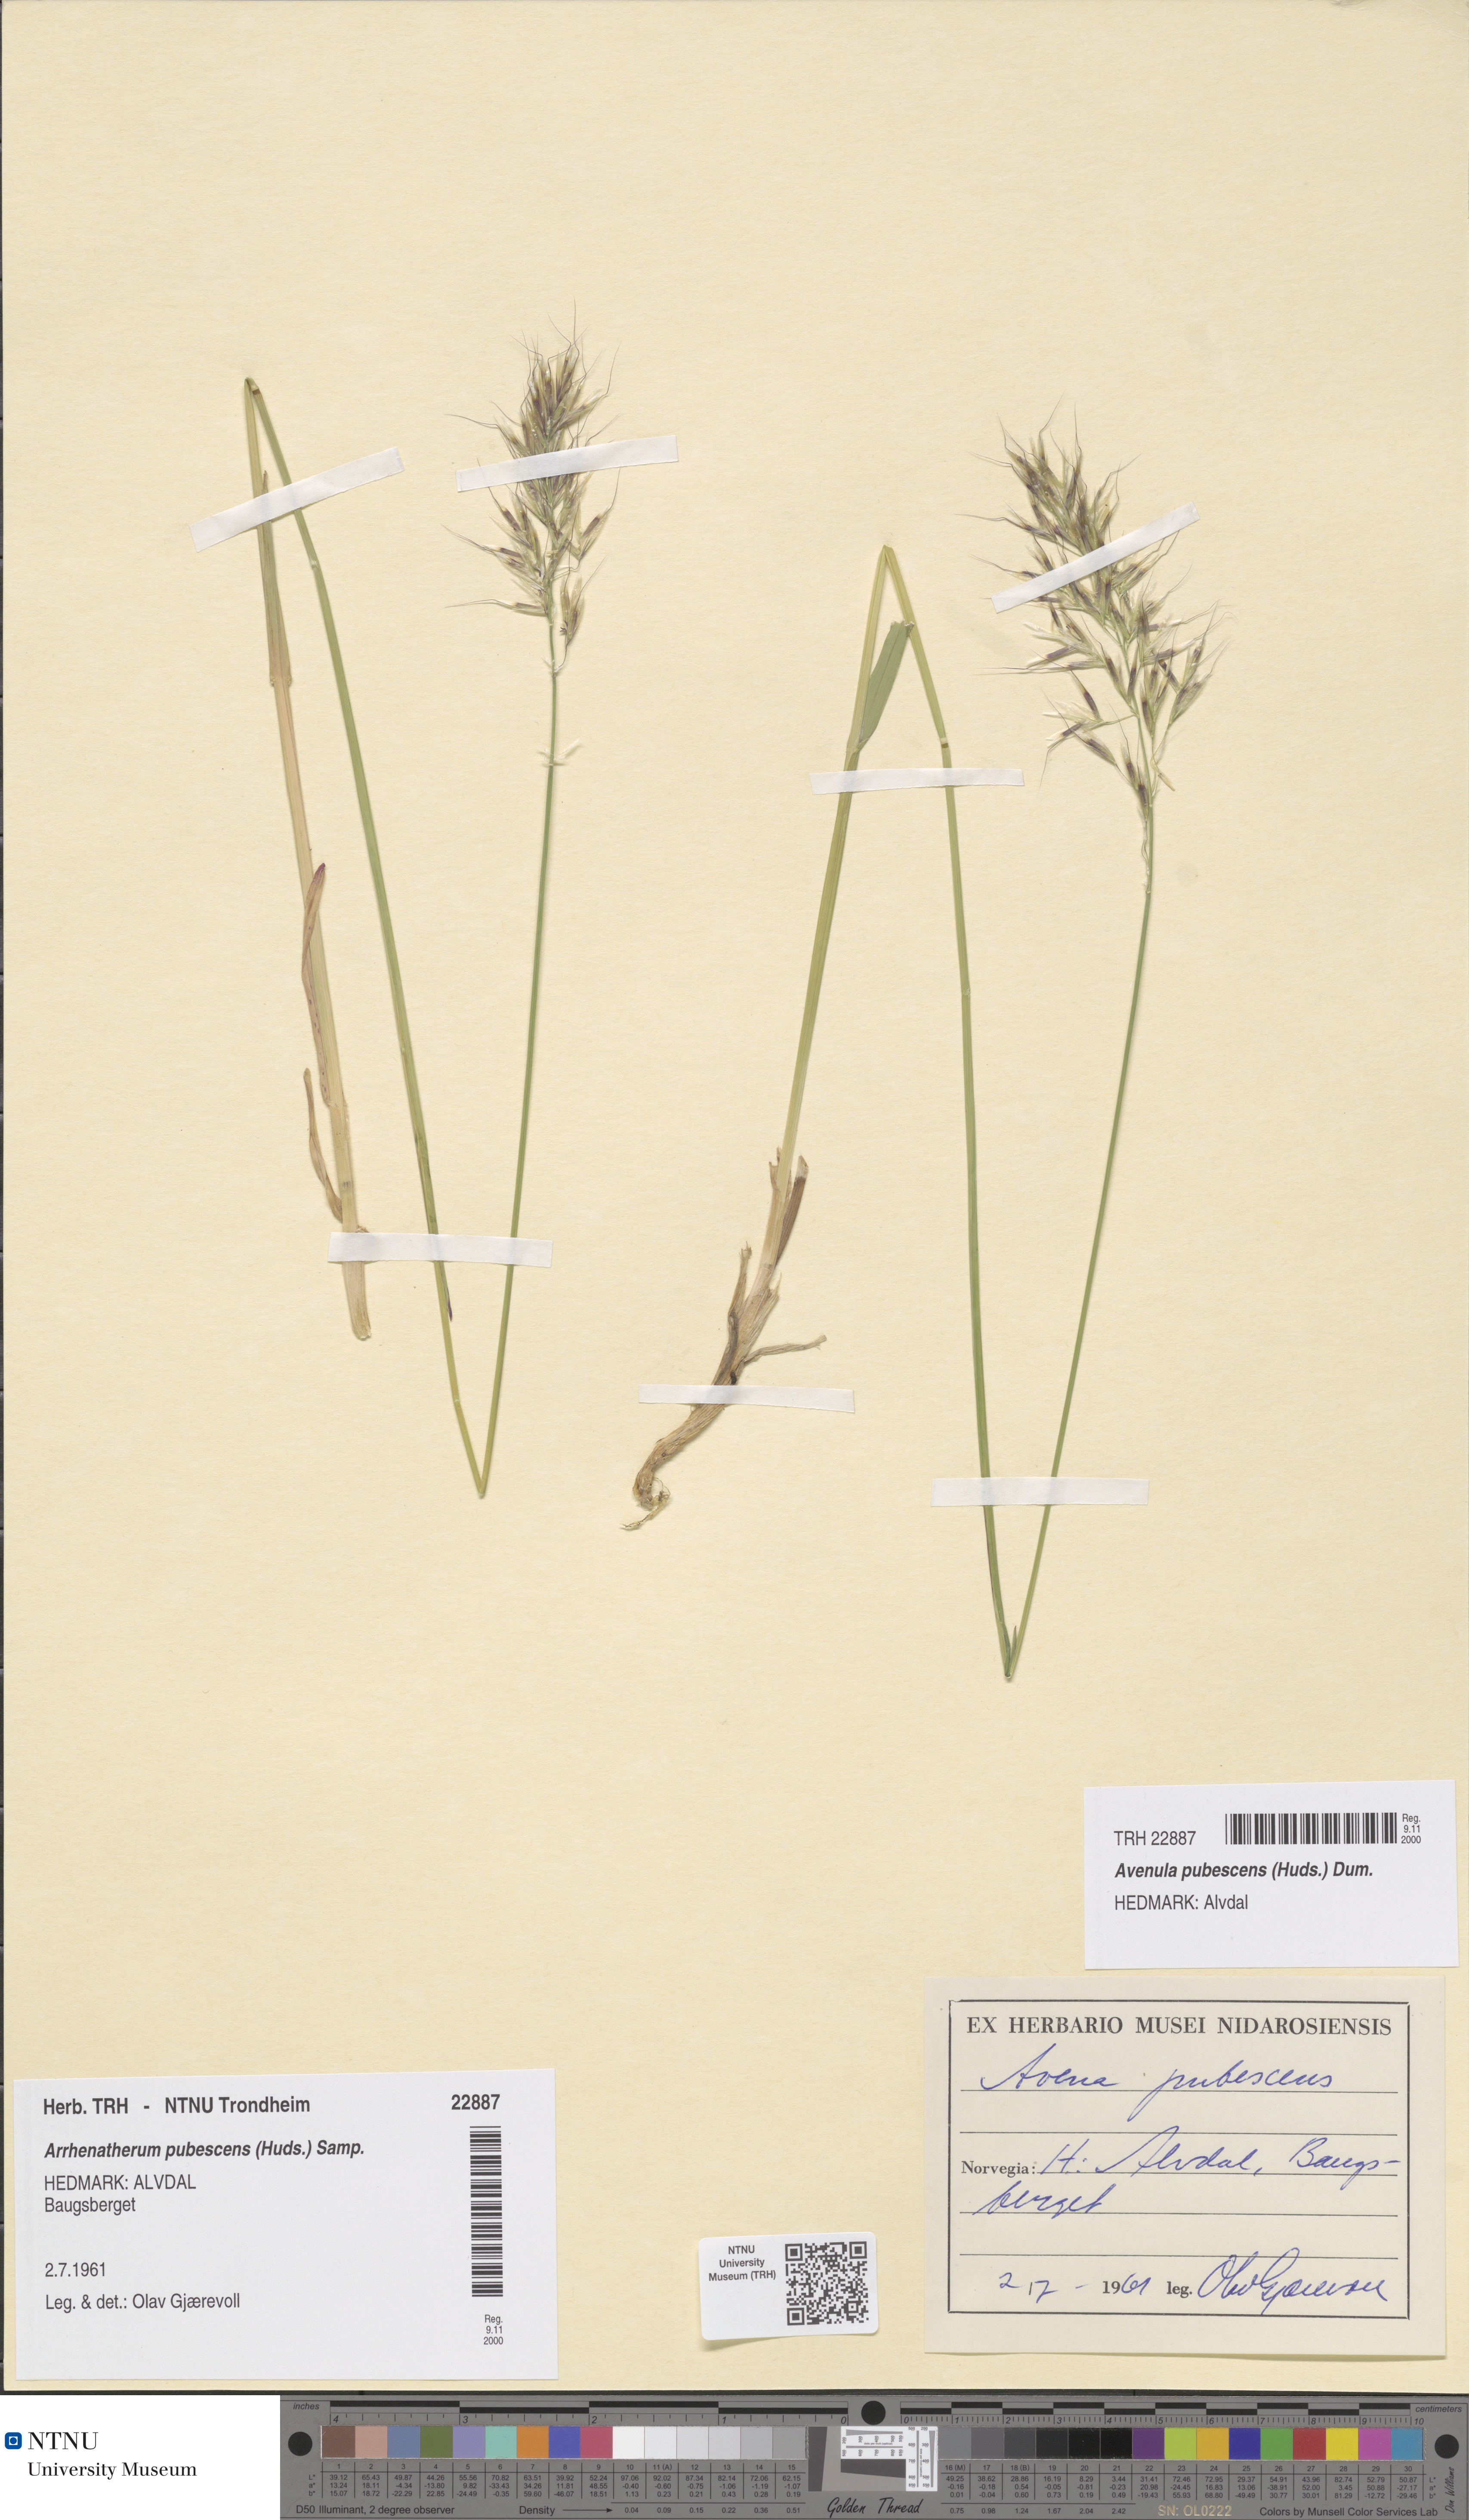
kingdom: Plantae
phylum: Tracheophyta
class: Liliopsida
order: Poales
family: Poaceae
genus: Avenula
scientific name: Avenula pubescens
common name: Downy alpine oatgrass
